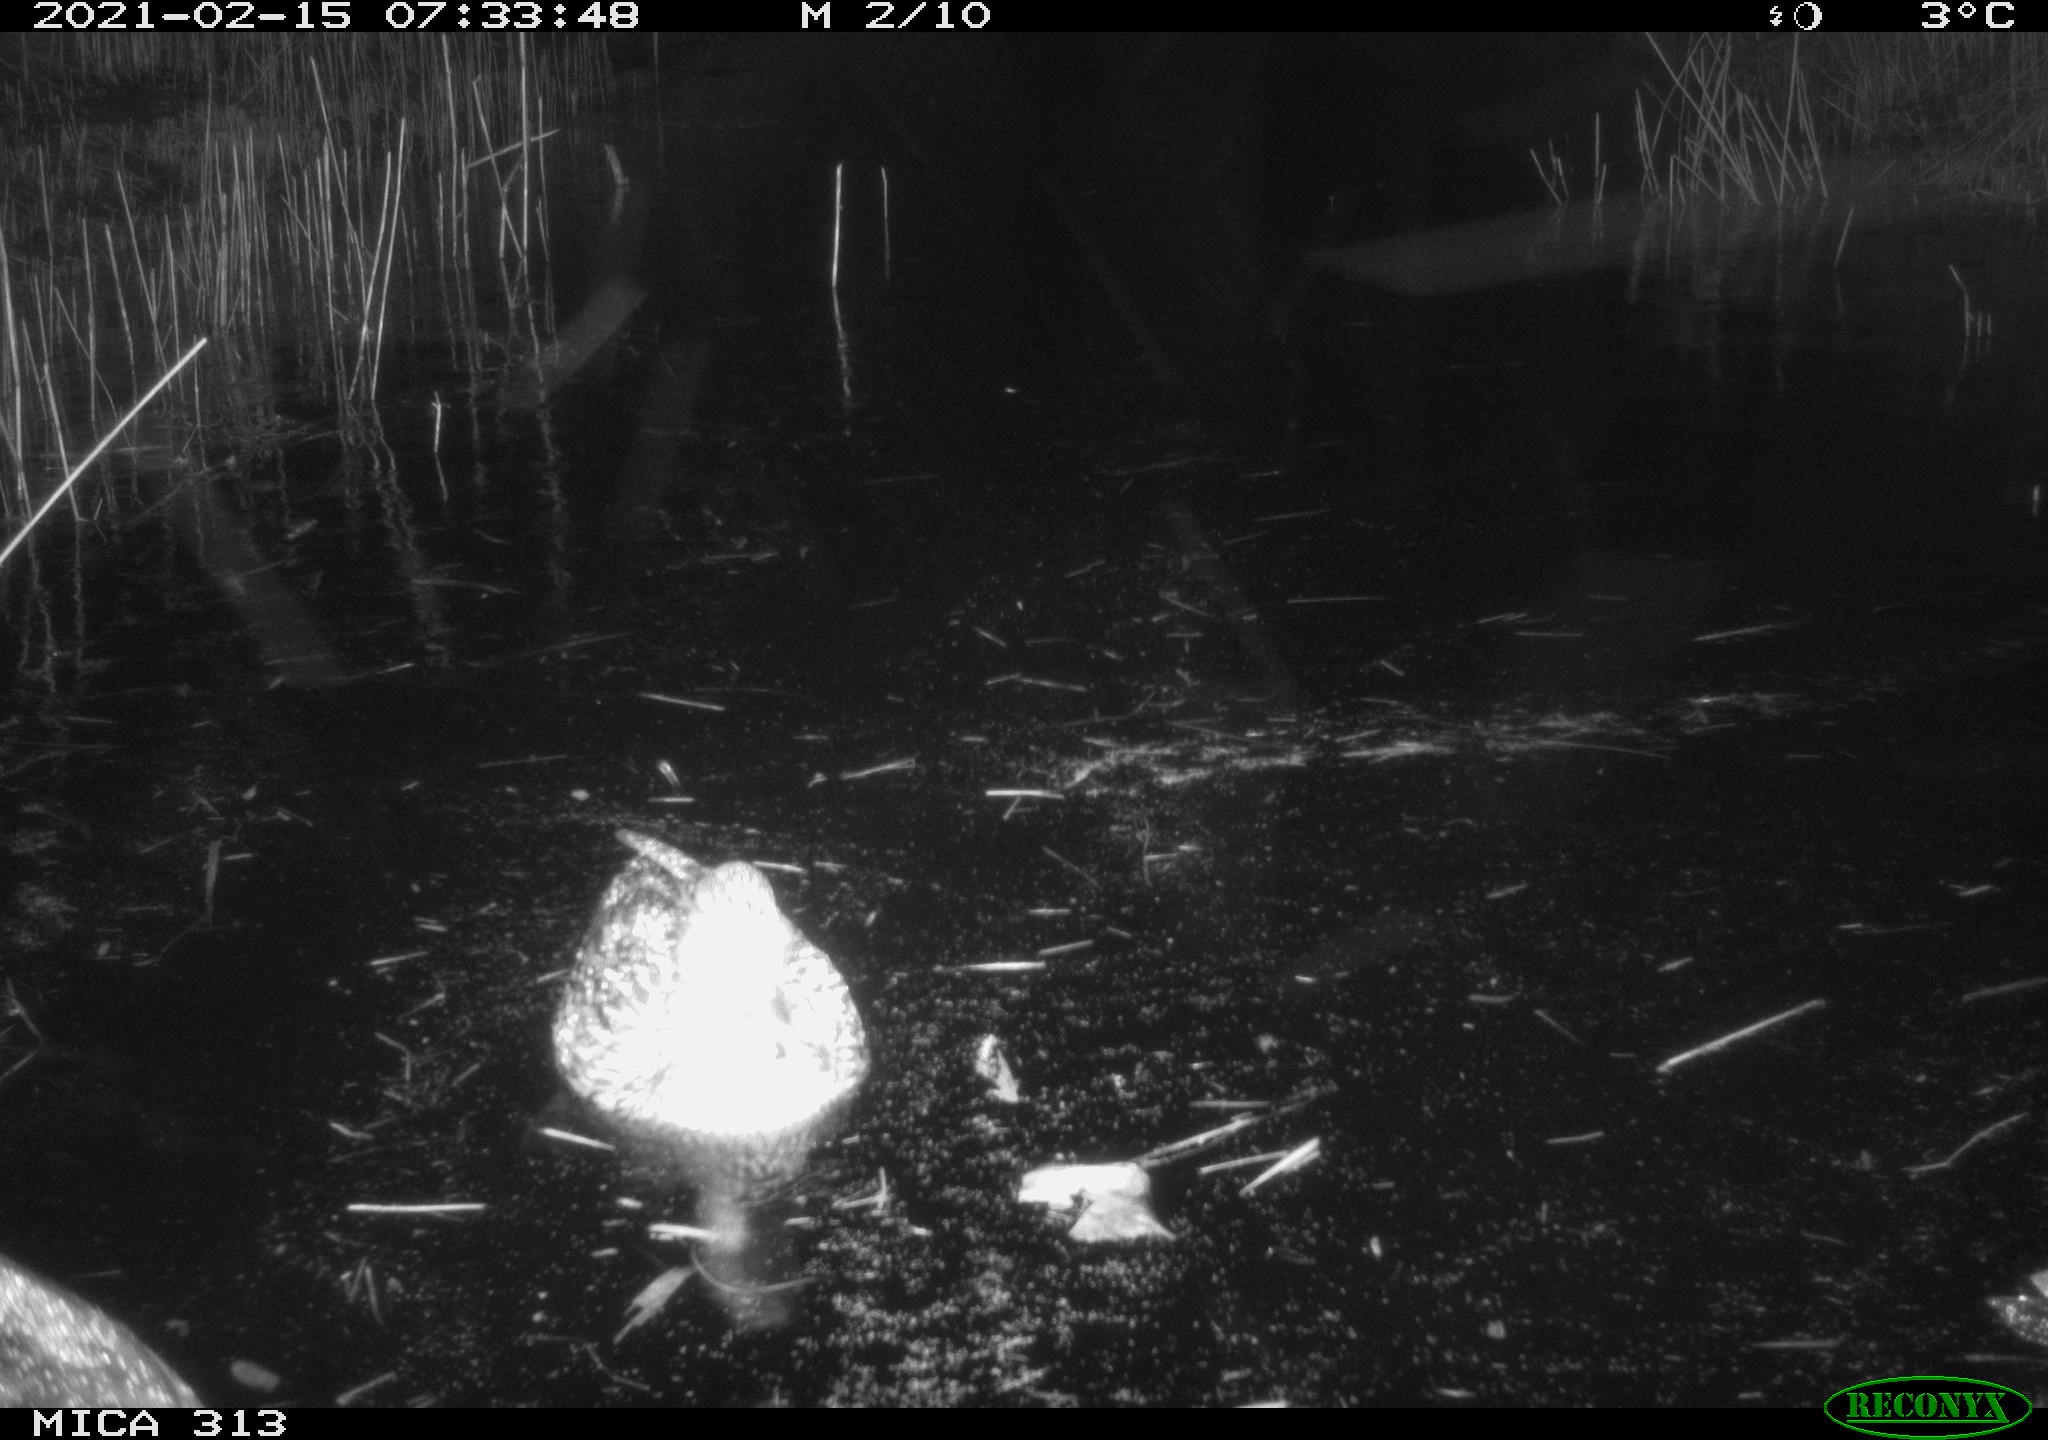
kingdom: Animalia
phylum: Chordata
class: Aves
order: Anseriformes
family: Anatidae
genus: Anas
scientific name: Anas platyrhynchos
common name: Mallard
